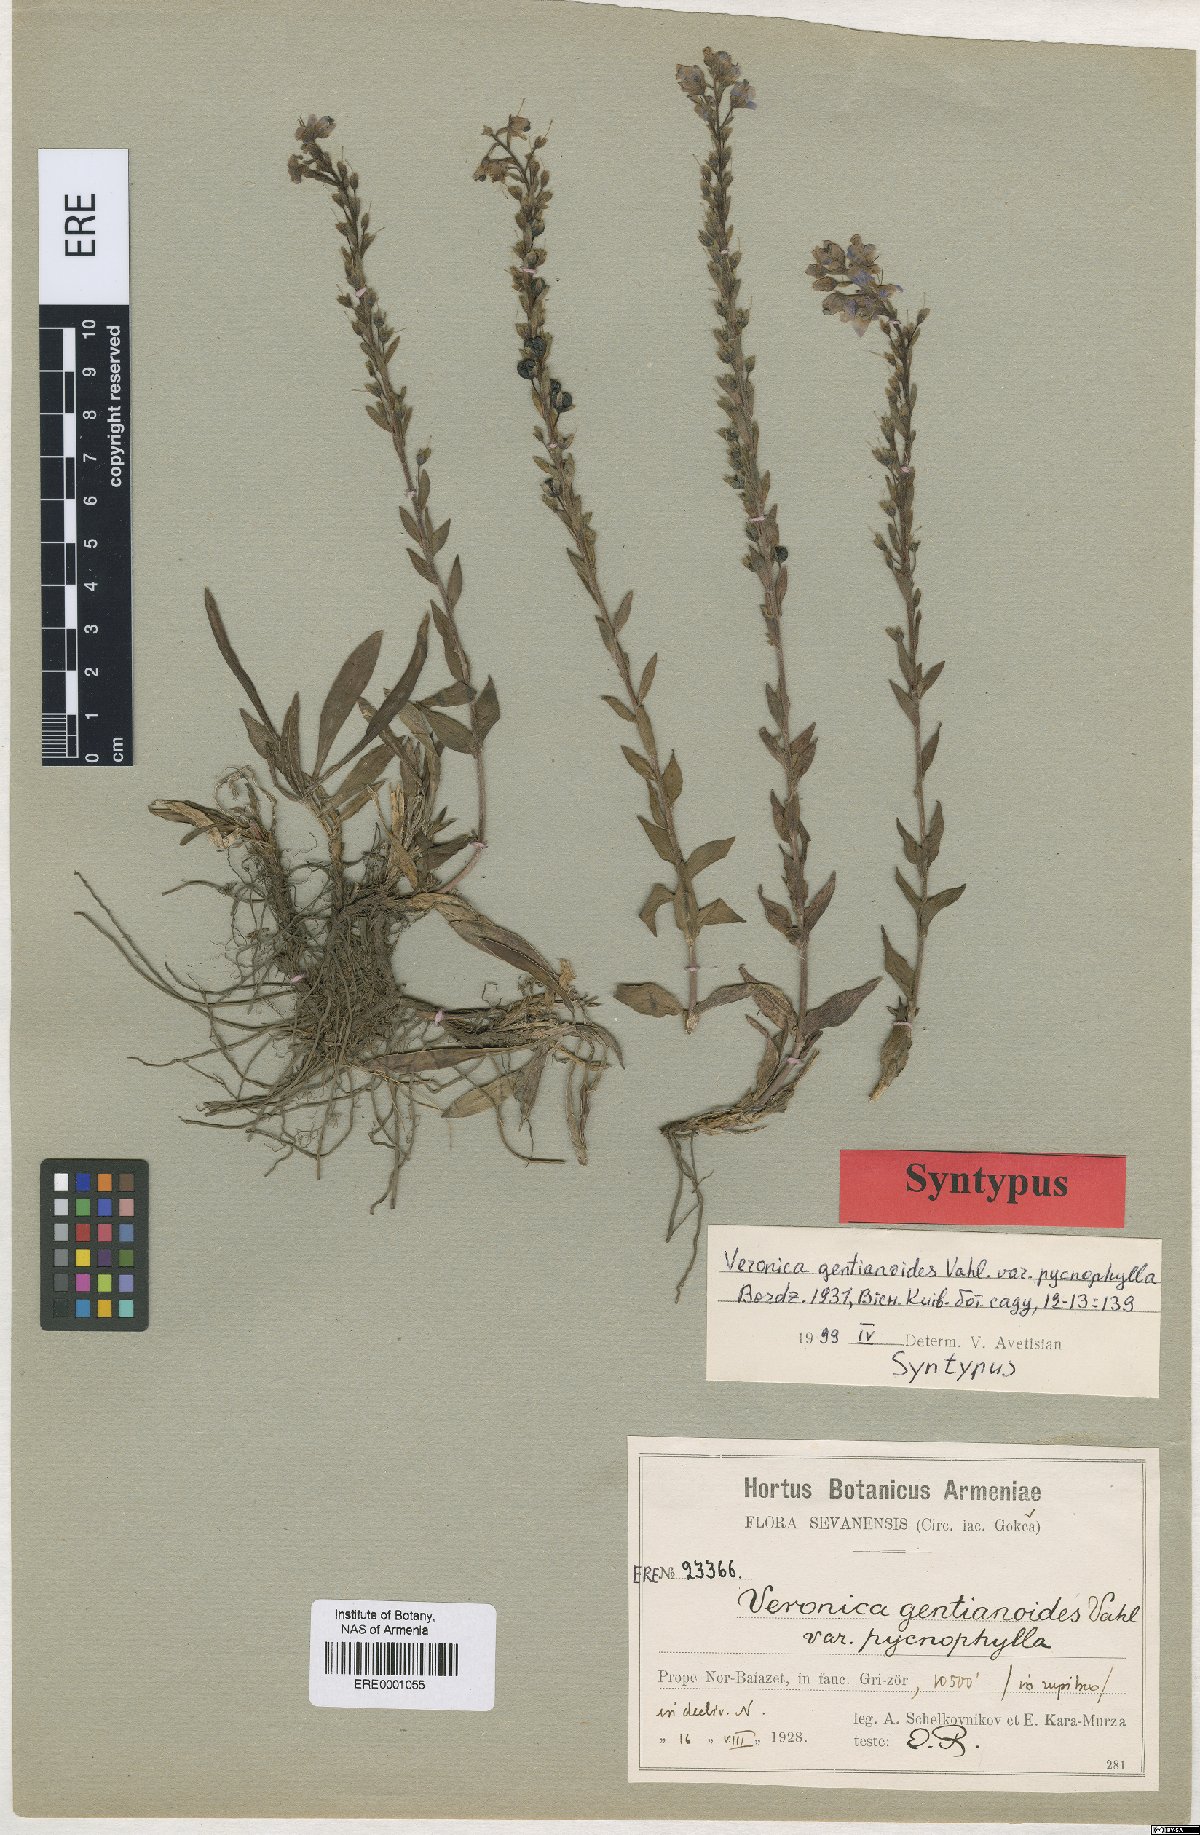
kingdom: Plantae
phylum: Tracheophyta
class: Magnoliopsida
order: Lamiales
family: Plantaginaceae
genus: Veronica
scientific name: Veronica gentianoides
